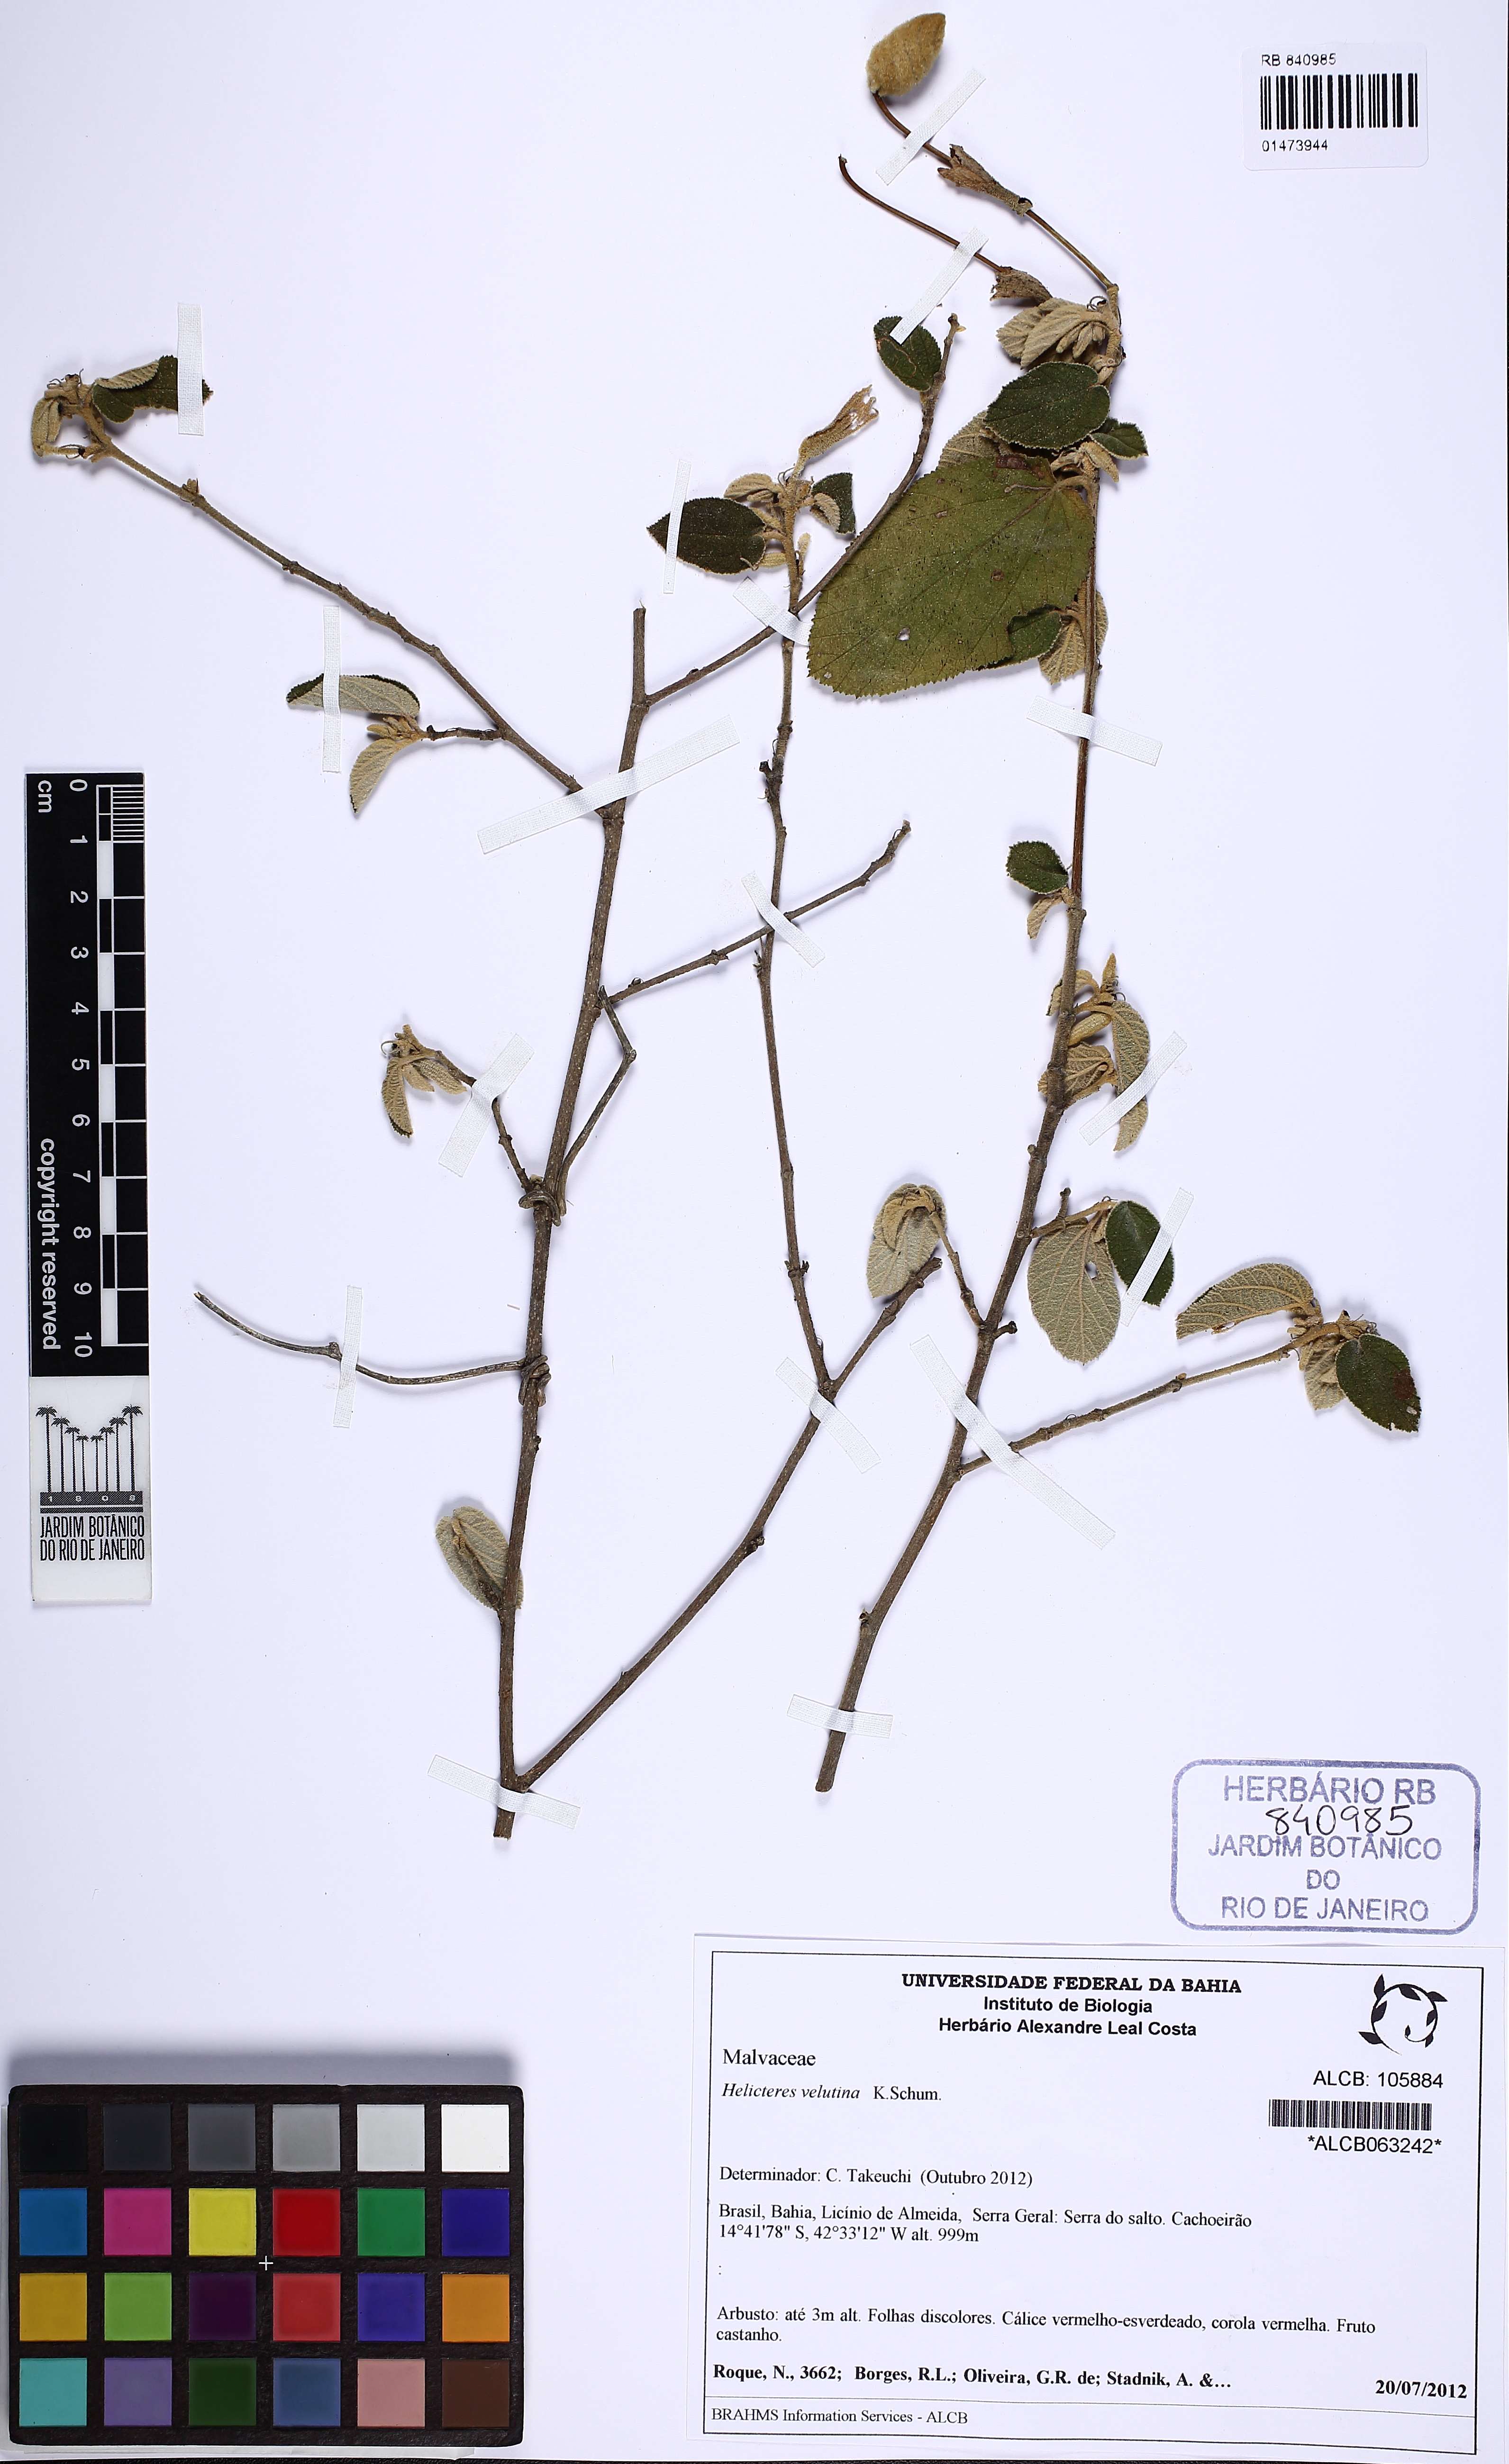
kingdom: Plantae
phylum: Tracheophyta
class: Magnoliopsida
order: Malvales
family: Malvaceae
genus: Helicteres
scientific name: Helicteres velutina
